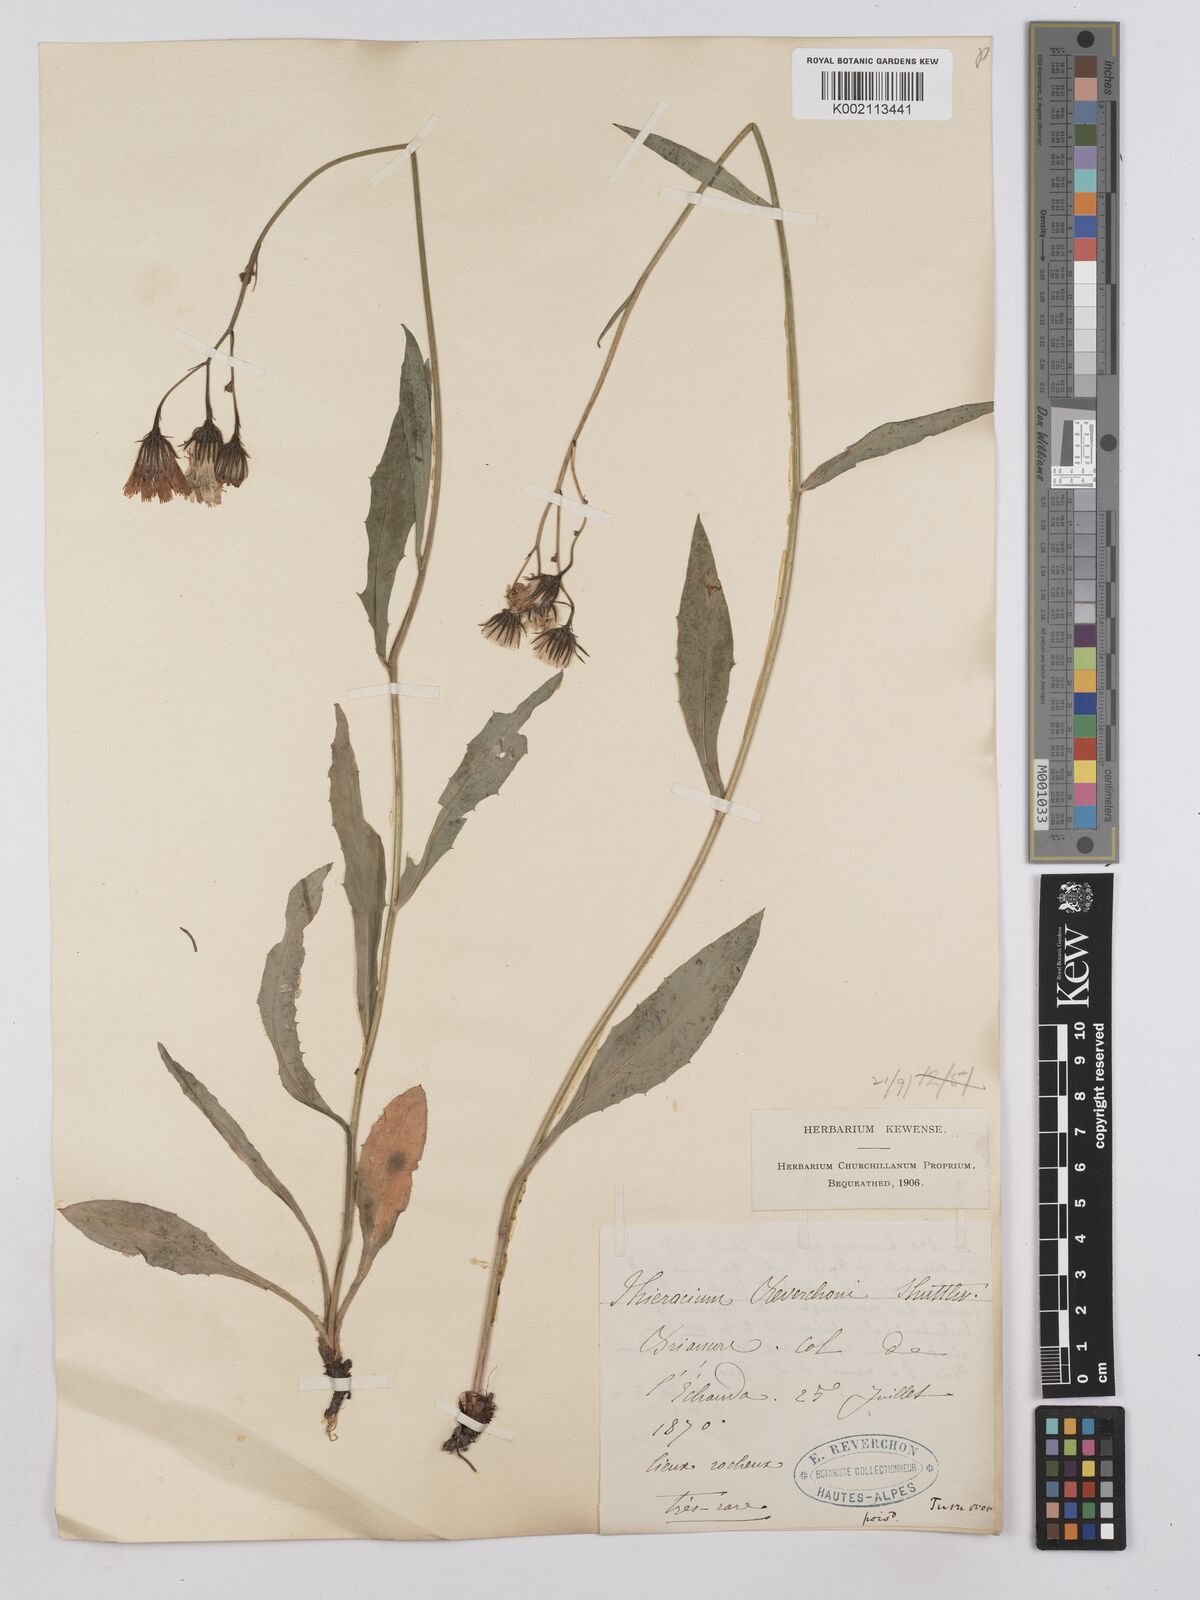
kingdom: Plantae
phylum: Tracheophyta
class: Magnoliopsida
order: Asterales
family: Asteraceae
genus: Hieracium
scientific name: Hieracium neyranum
